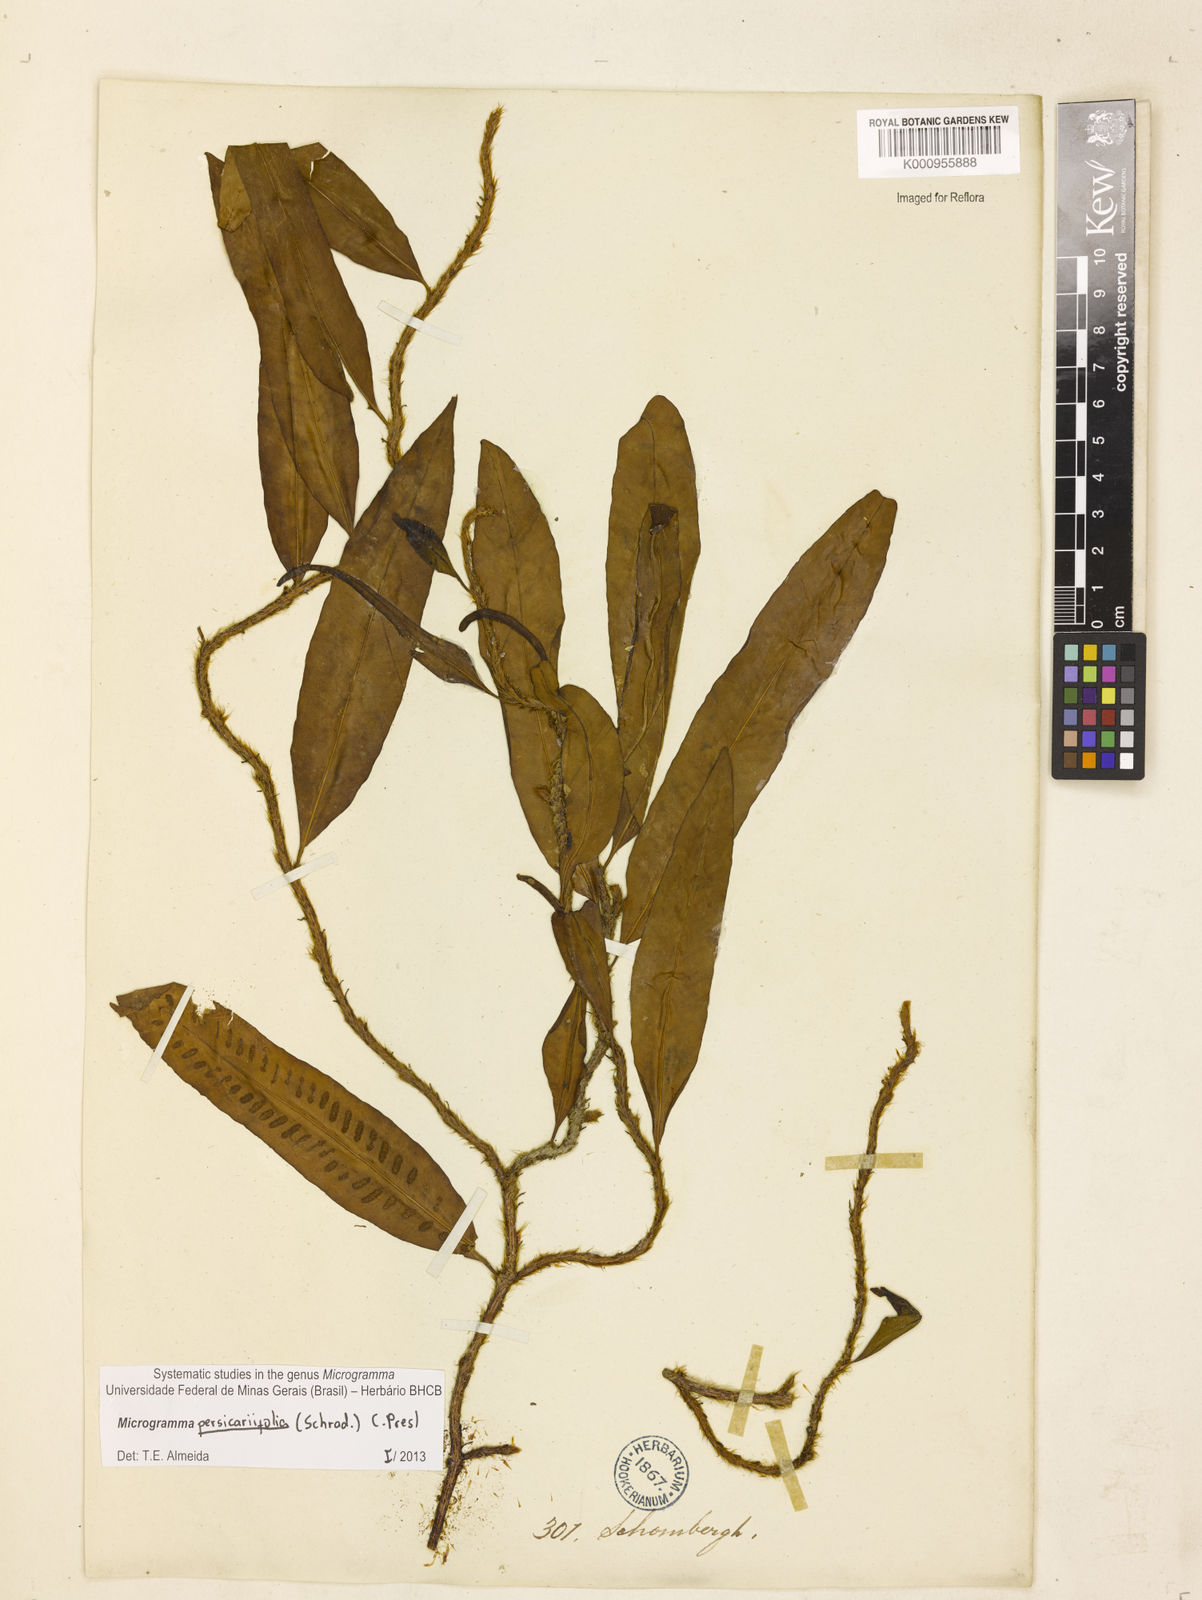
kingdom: Plantae
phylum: Tracheophyta
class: Polypodiopsida
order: Polypodiales
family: Polypodiaceae
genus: Microgramma
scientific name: Microgramma persicariifolia
